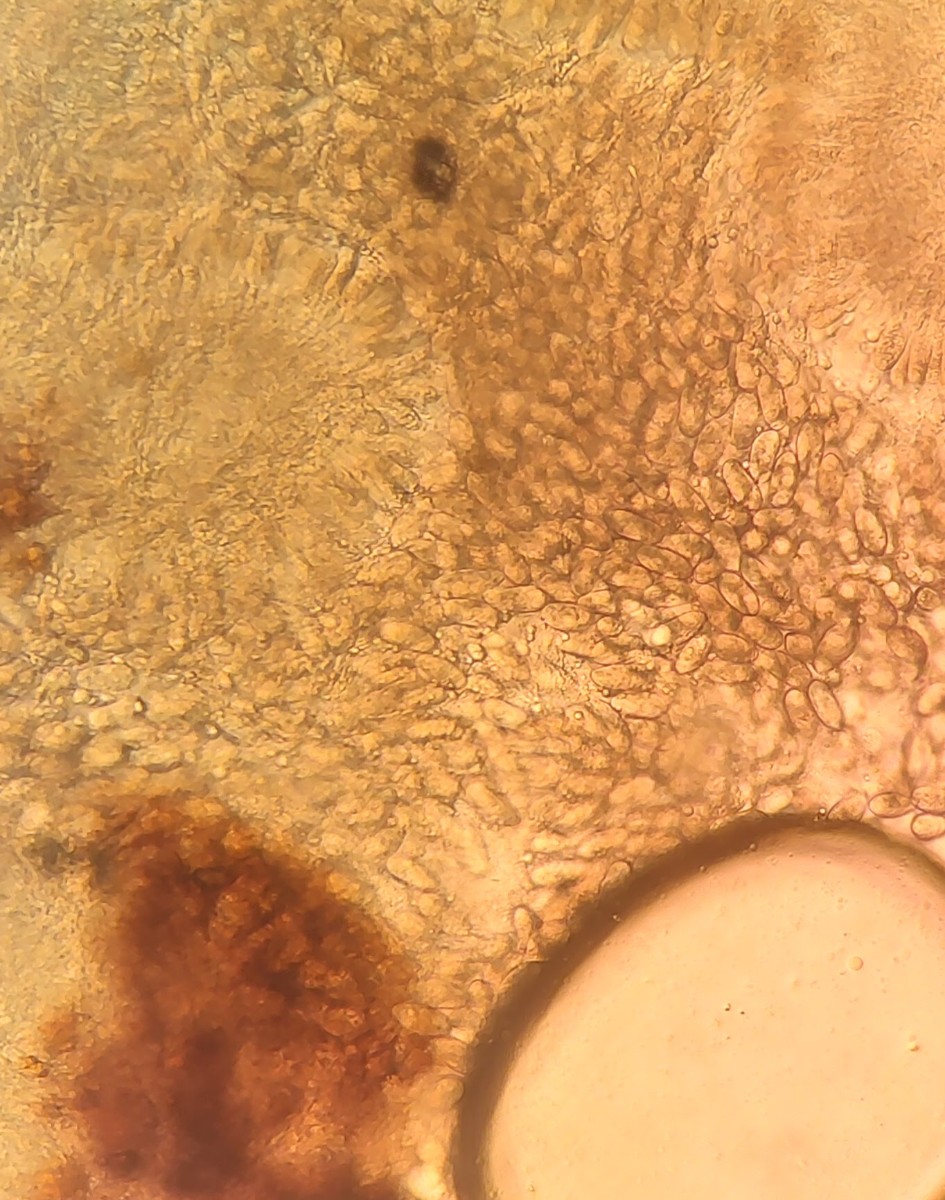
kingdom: Fungi
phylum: Ascomycota
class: Sordariomycetes
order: Diaporthales
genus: Botryodiplodia
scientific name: Botryodiplodia fraxini
